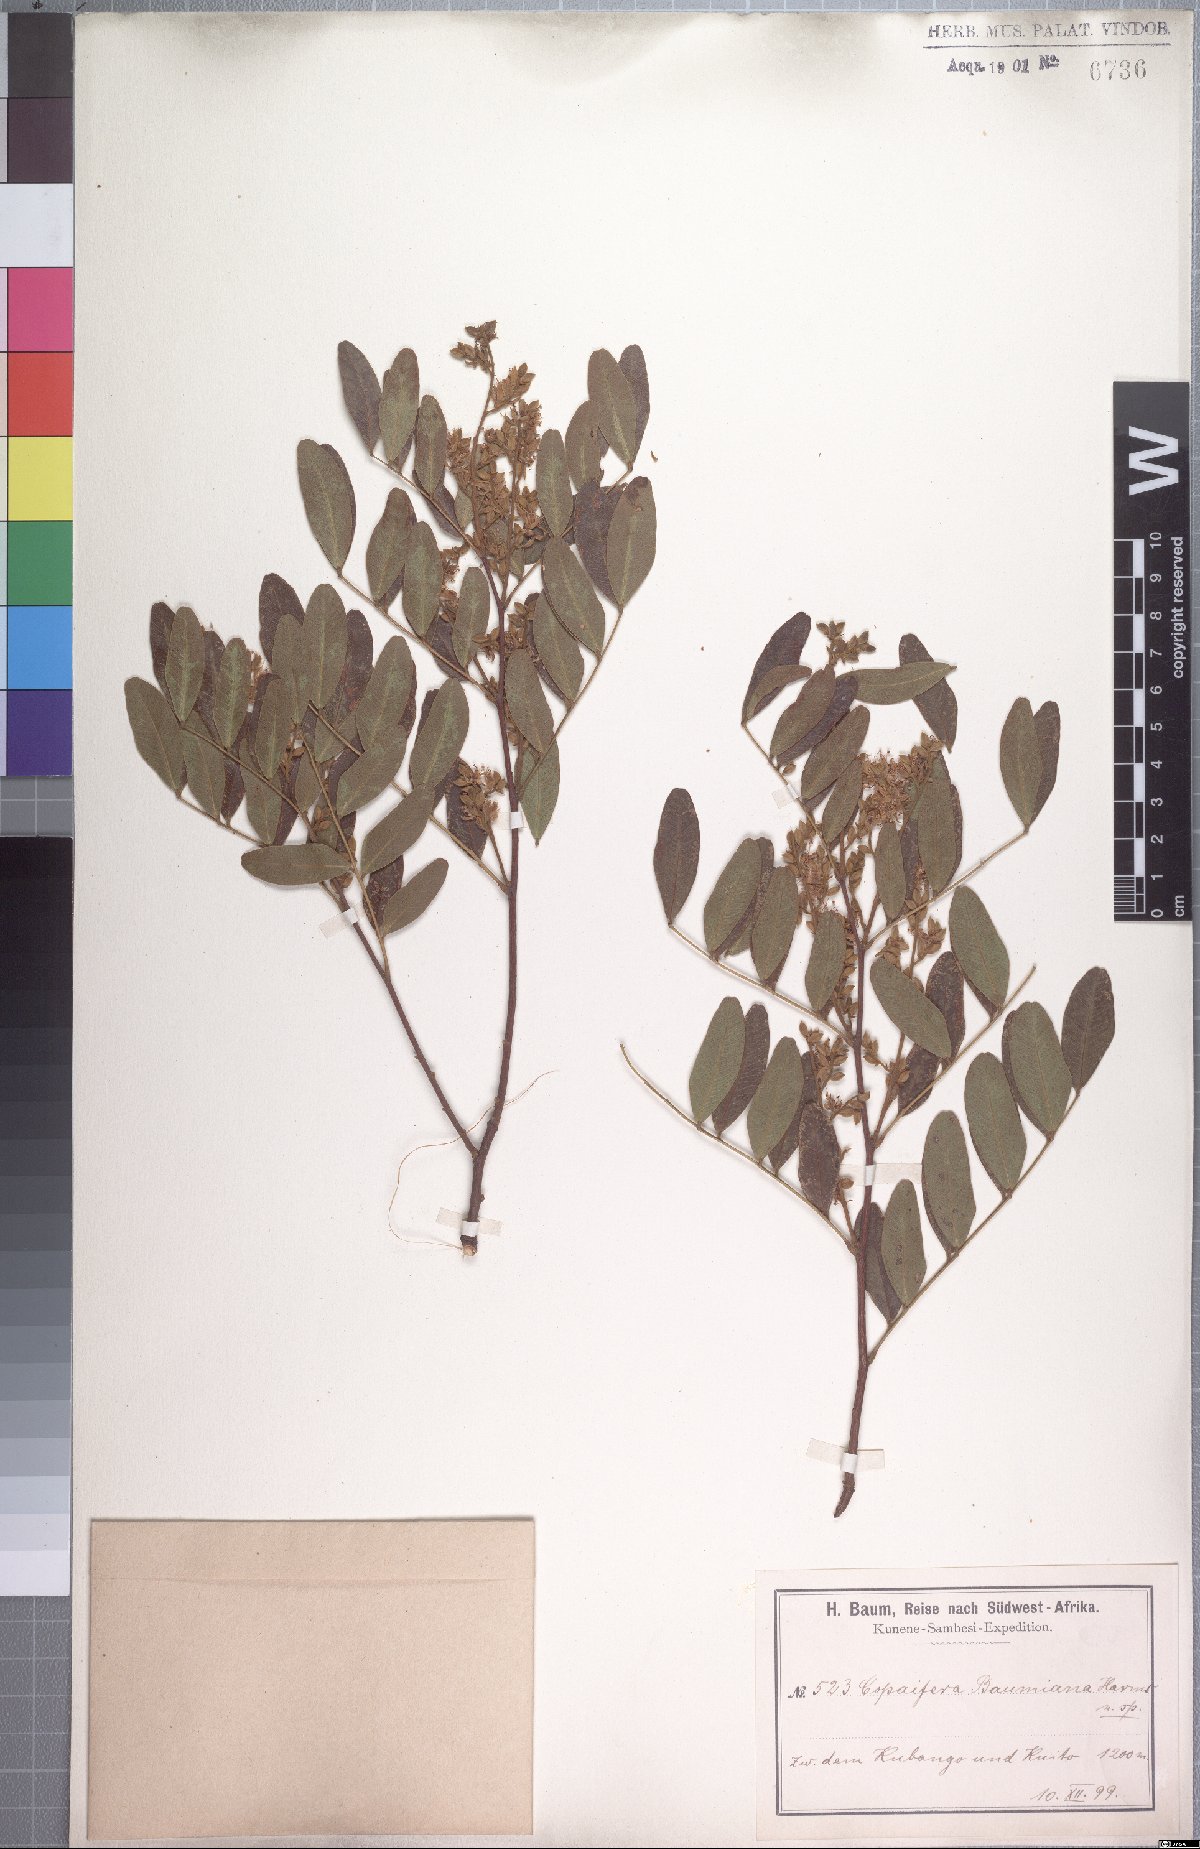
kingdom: Plantae
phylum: Tracheophyta
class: Magnoliopsida
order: Fabales
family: Fabaceae
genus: Copaifera
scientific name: Copaifera baumiana
